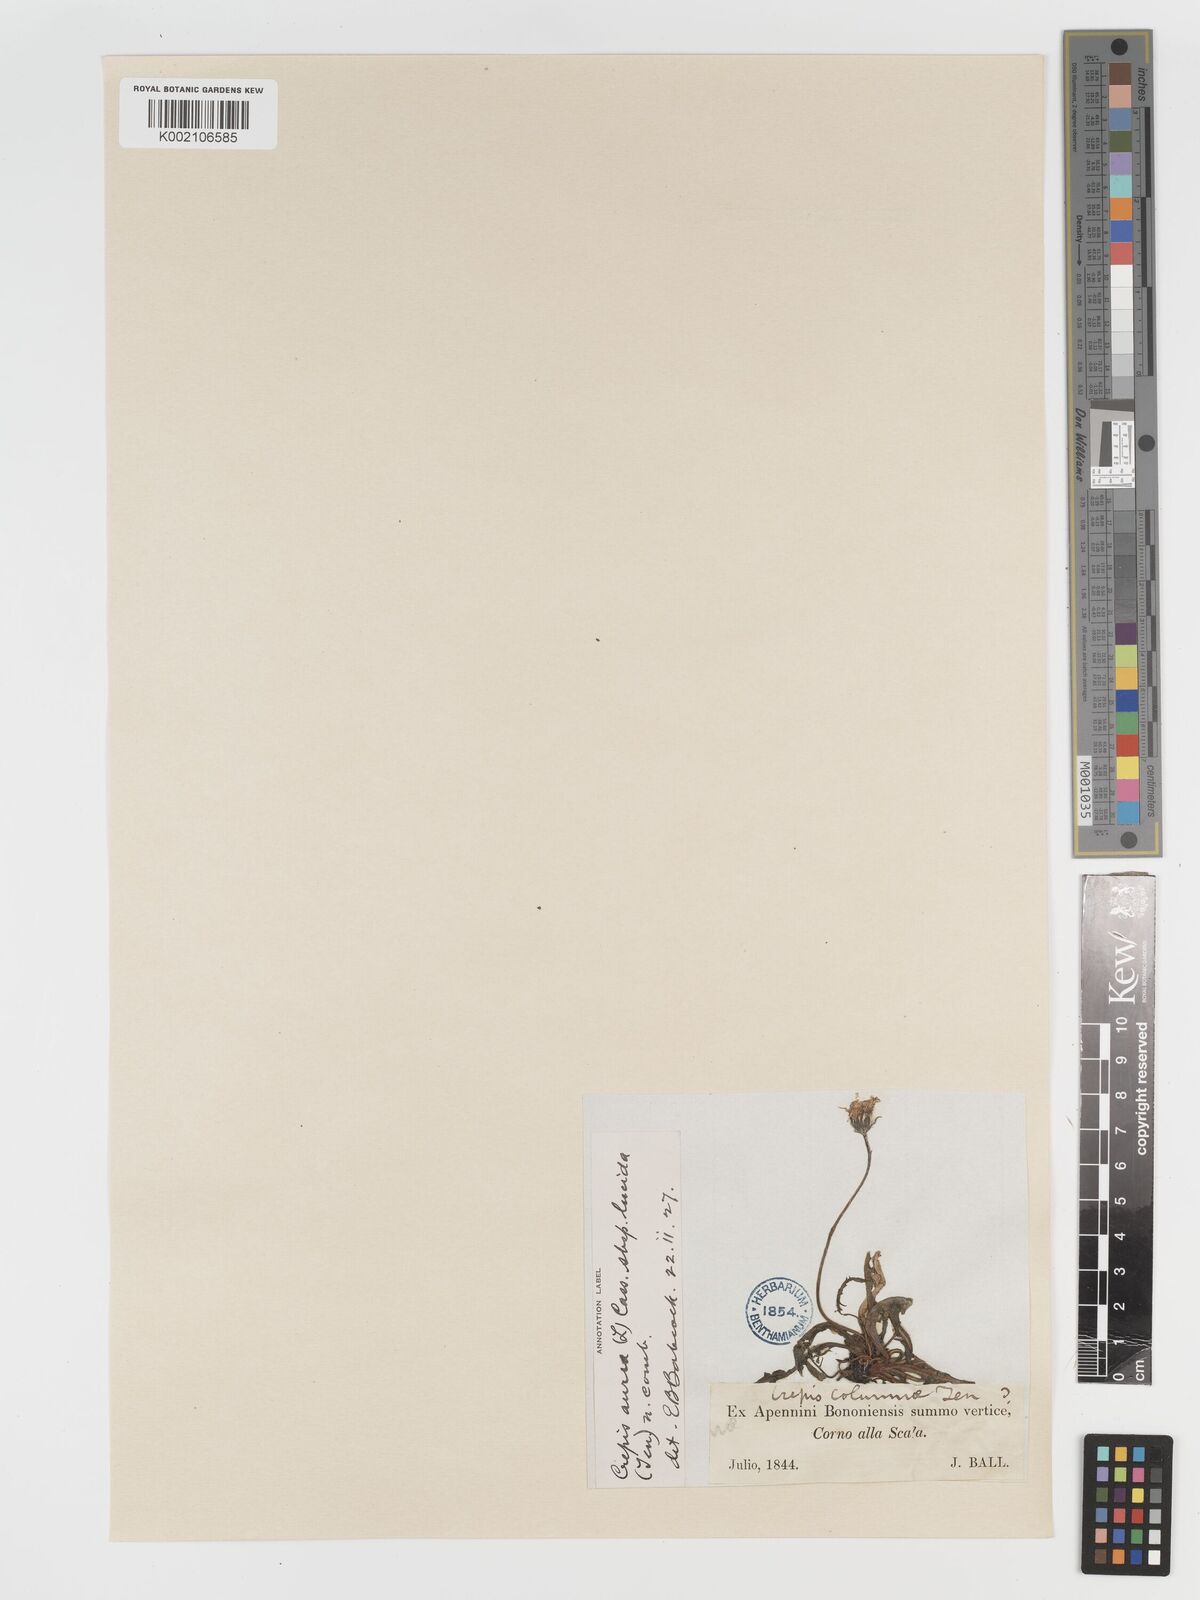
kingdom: Plantae
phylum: Tracheophyta
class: Magnoliopsida
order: Asterales
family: Asteraceae
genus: Crepis
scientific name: Crepis aurea
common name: Golden hawk's-beard
